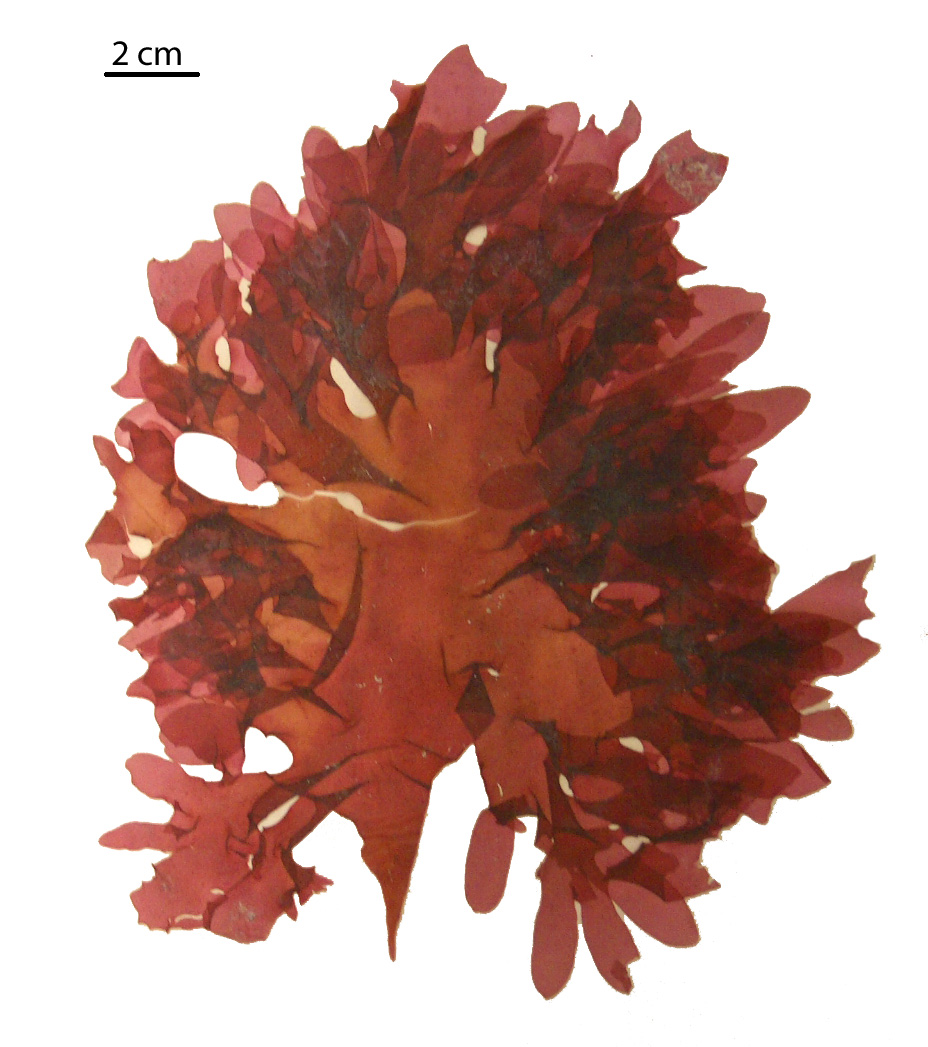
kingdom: Plantae
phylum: Rhodophyta
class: Florideophyceae
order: Gigartinales
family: Kallymeniaceae
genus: Psaromenia
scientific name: Psaromenia berggrenii
